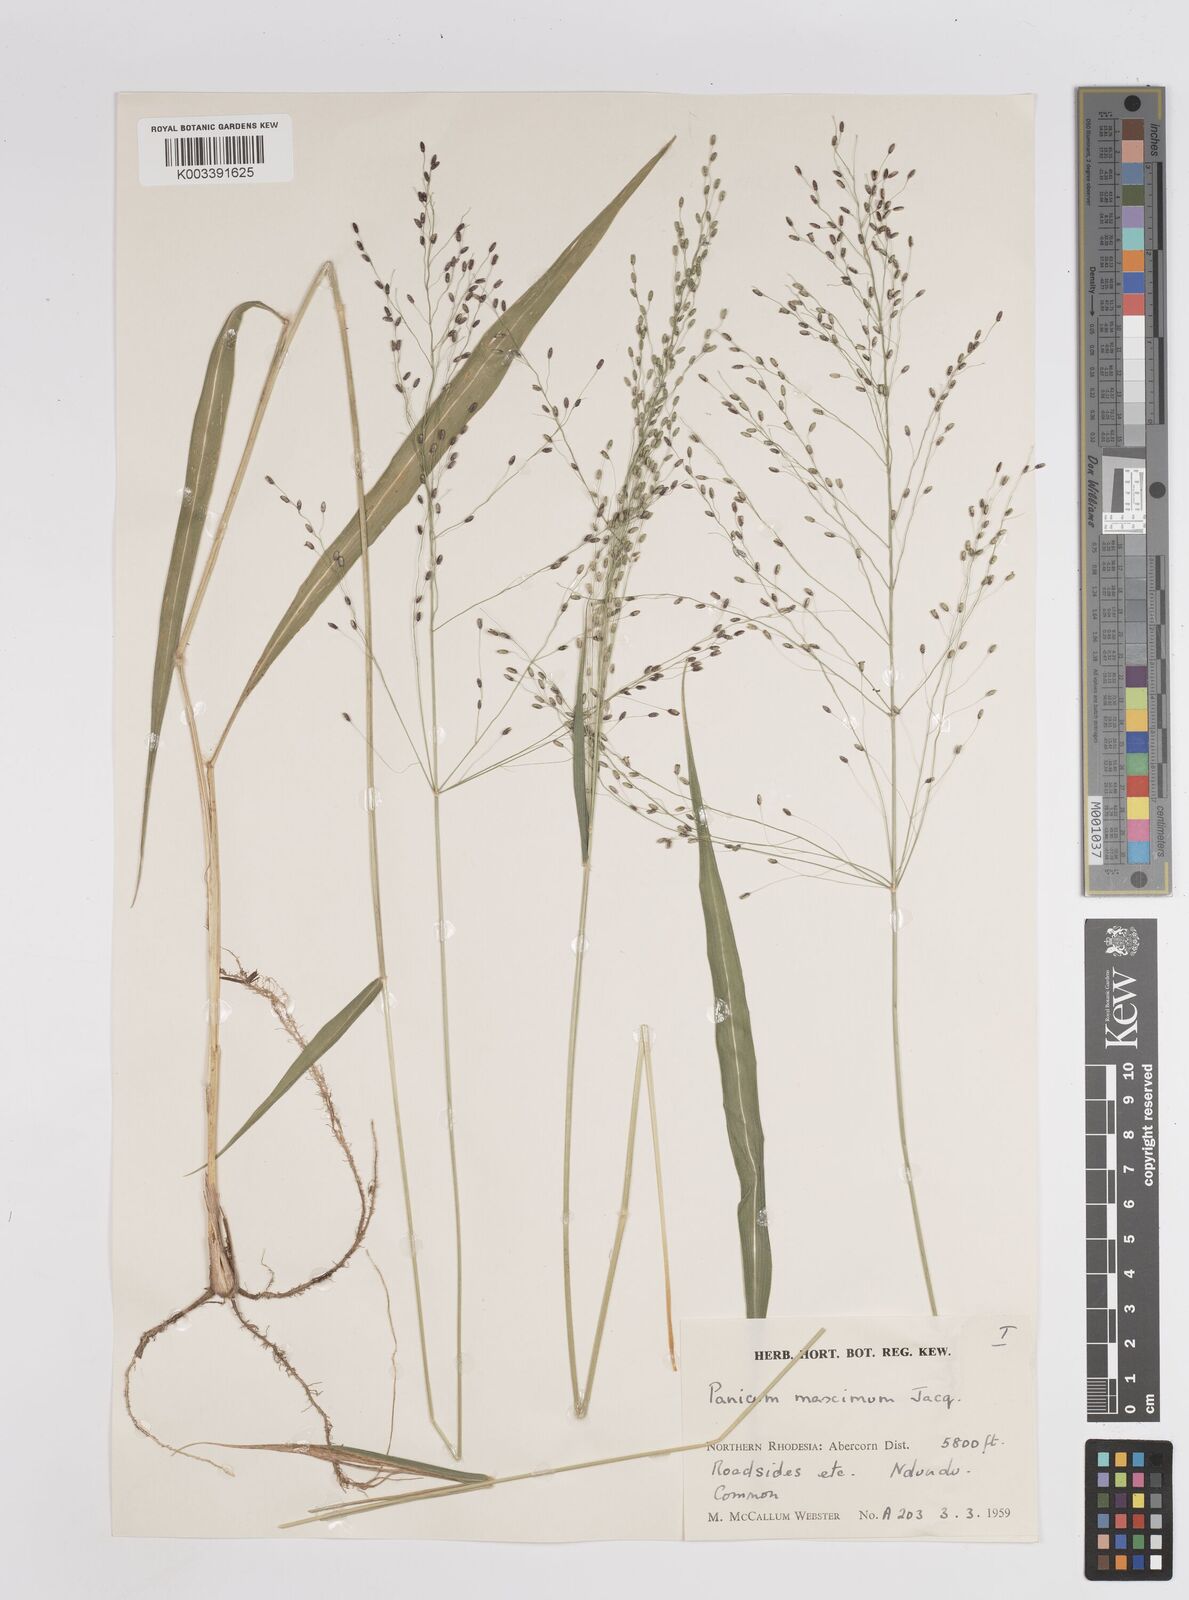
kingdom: Plantae
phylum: Tracheophyta
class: Liliopsida
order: Poales
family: Poaceae
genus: Megathyrsus
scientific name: Megathyrsus maximus
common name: Guineagrass
